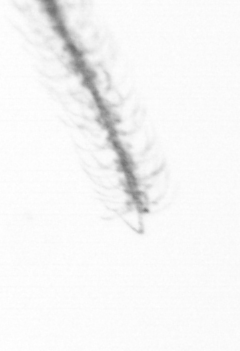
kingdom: Chromista
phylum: Ochrophyta
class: Bacillariophyceae
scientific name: Bacillariophyceae
